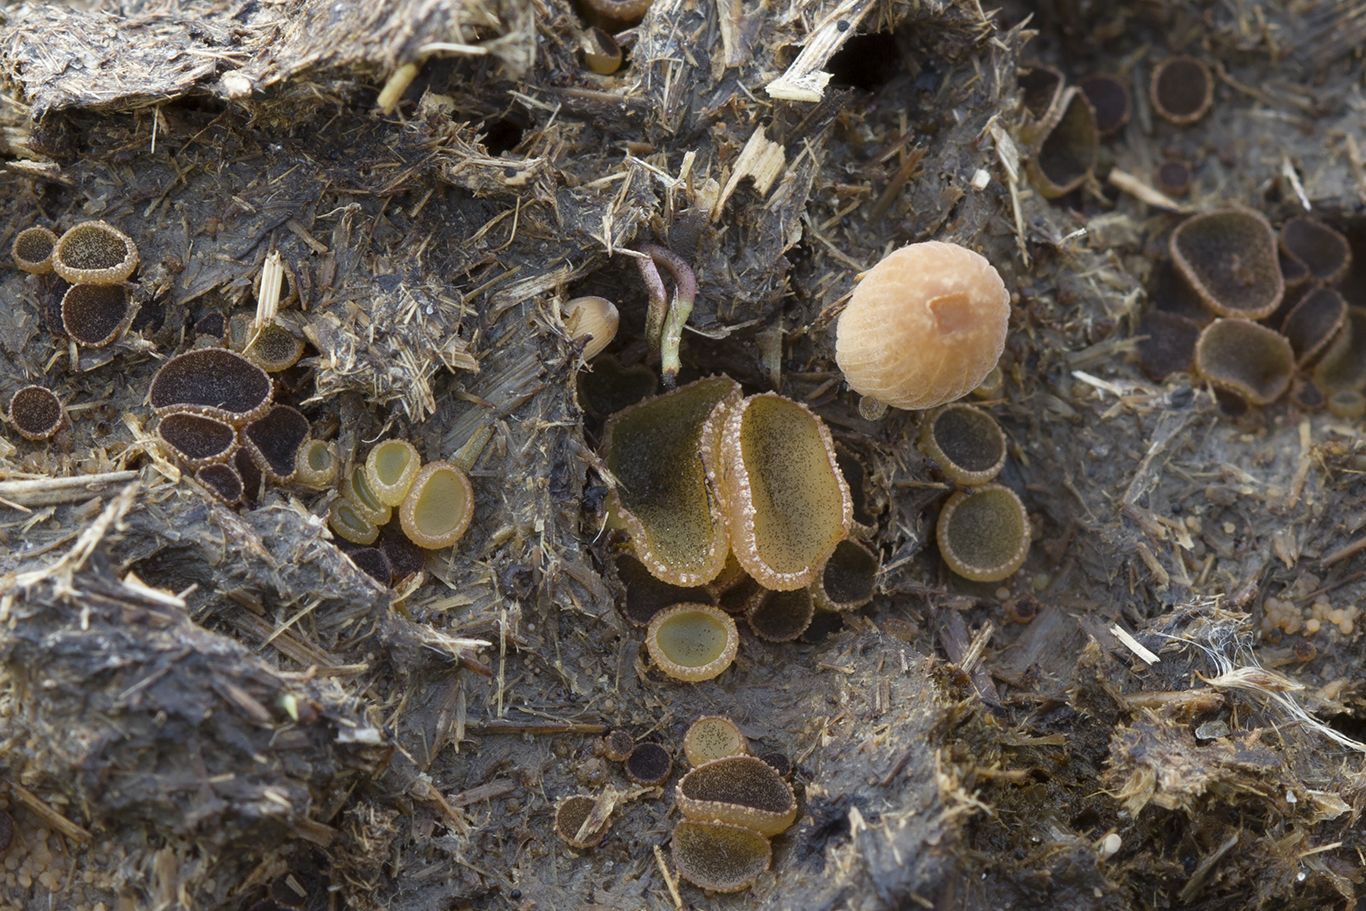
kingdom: Fungi
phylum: Ascomycota
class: Pezizomycetes
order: Pezizales
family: Ascobolaceae
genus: Ascobolus
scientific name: Ascobolus furfuraceus
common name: almindelig prikbæger
